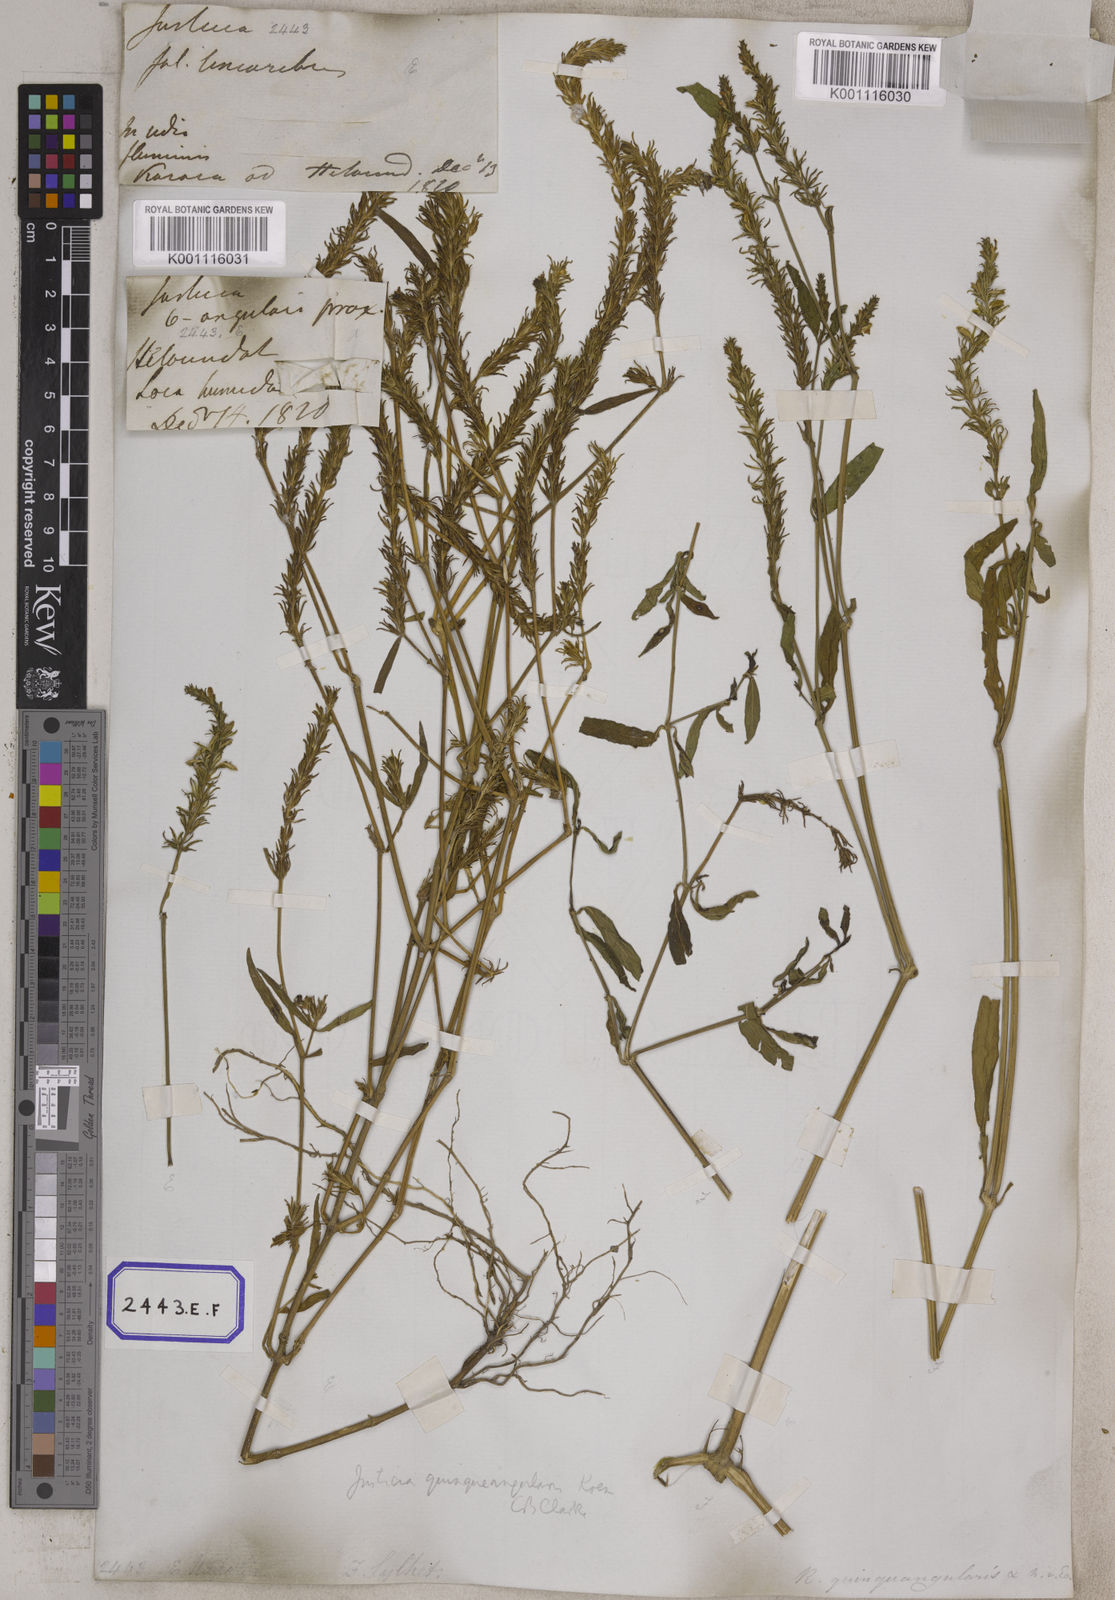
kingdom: Plantae
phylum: Tracheophyta
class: Magnoliopsida
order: Lamiales
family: Acanthaceae
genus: Rostellularia
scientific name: Rostellularia diffusa
